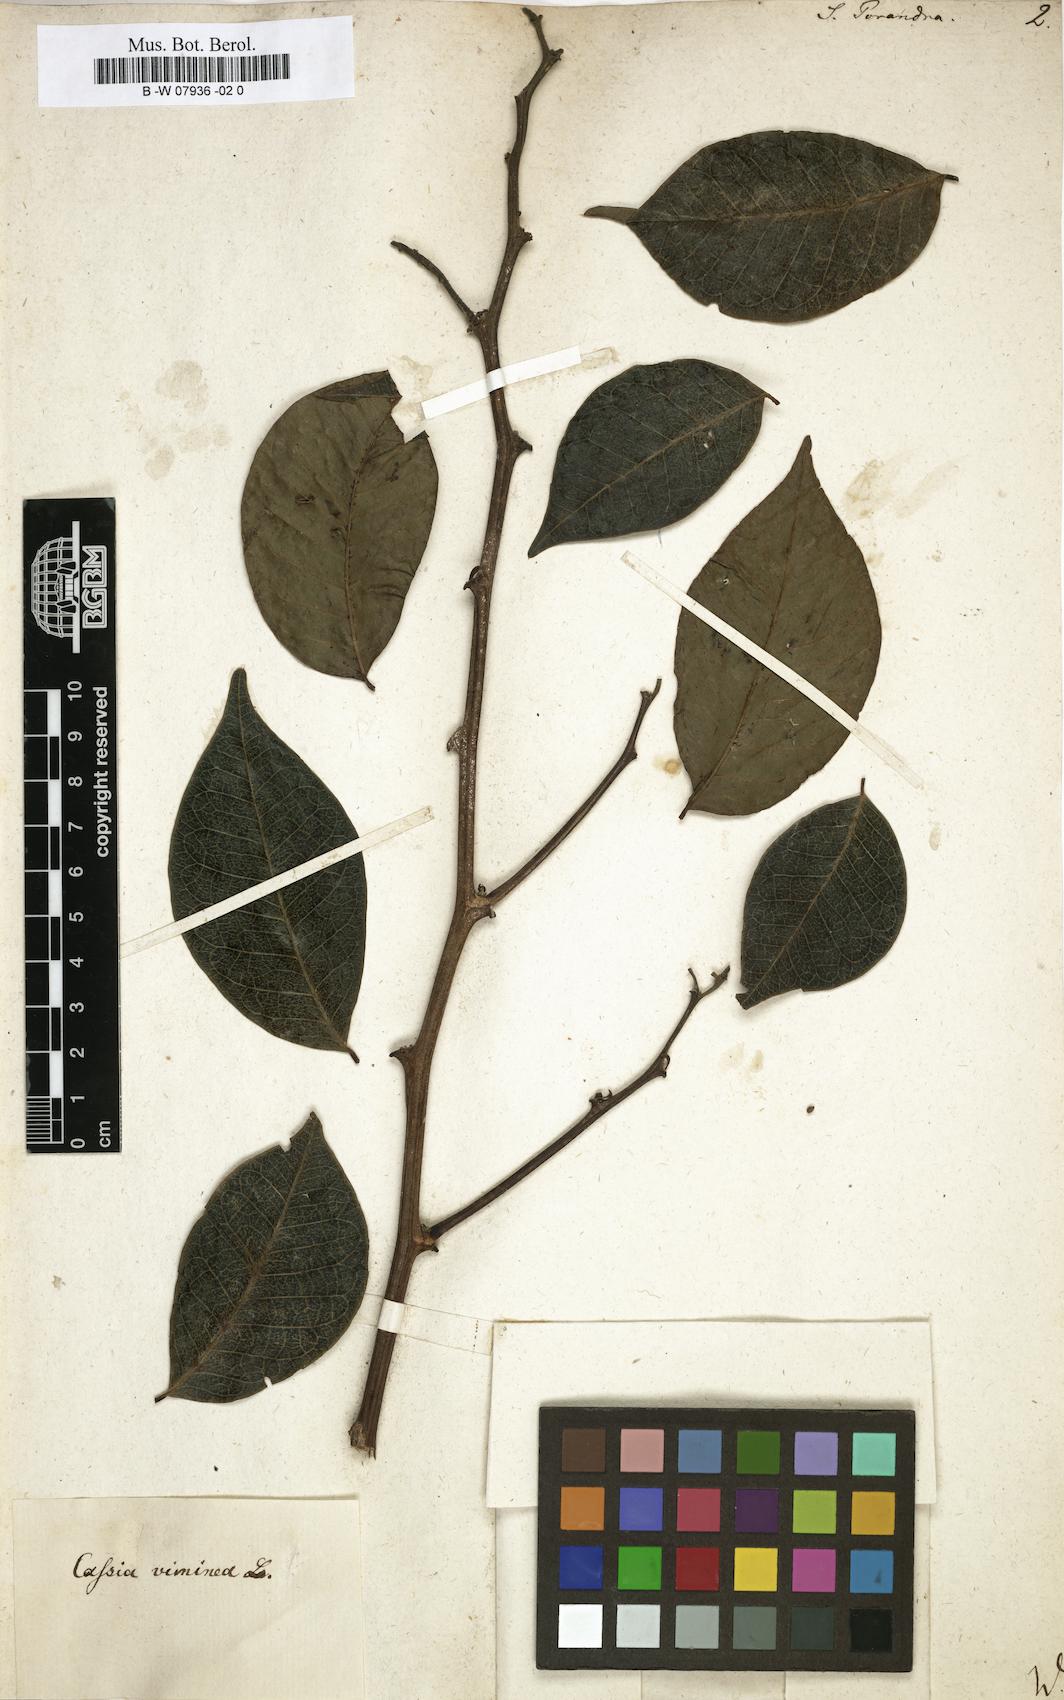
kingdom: Plantae
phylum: Tracheophyta
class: Magnoliopsida
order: Fabales
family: Fabaceae
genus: Cassia
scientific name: Cassia
